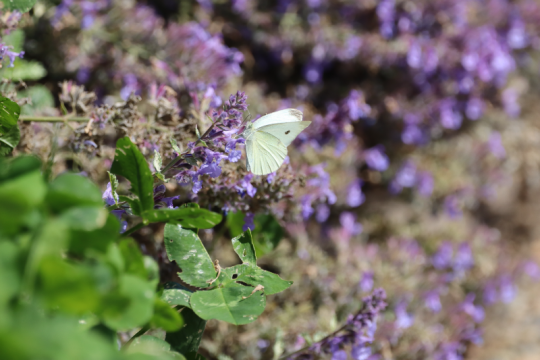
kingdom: Animalia
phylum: Arthropoda
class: Insecta
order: Lepidoptera
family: Pieridae
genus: Pieris
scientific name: Pieris rapae
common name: Cabbage White
